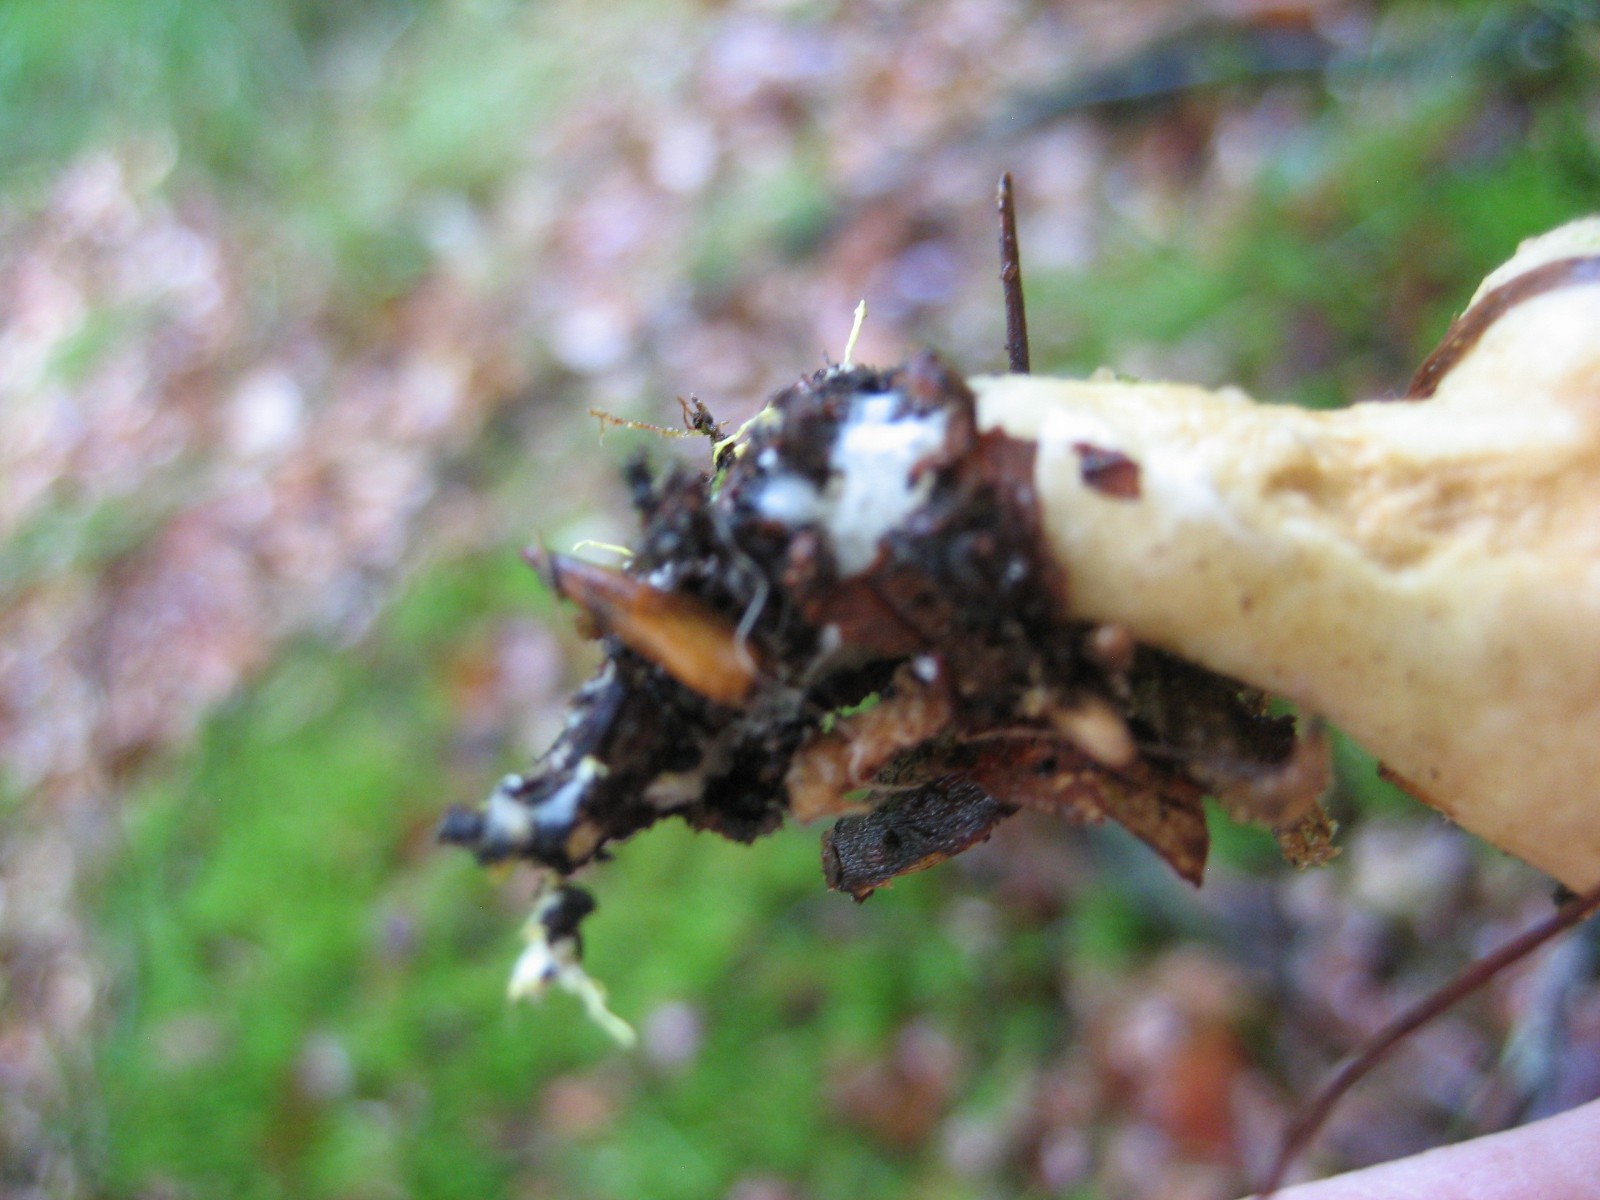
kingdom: Fungi
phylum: Basidiomycota
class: Agaricomycetes
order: Boletales
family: Boletaceae
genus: Xerocomus
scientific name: Xerocomus ferrugineus
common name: vaskeskinds-rørhat
